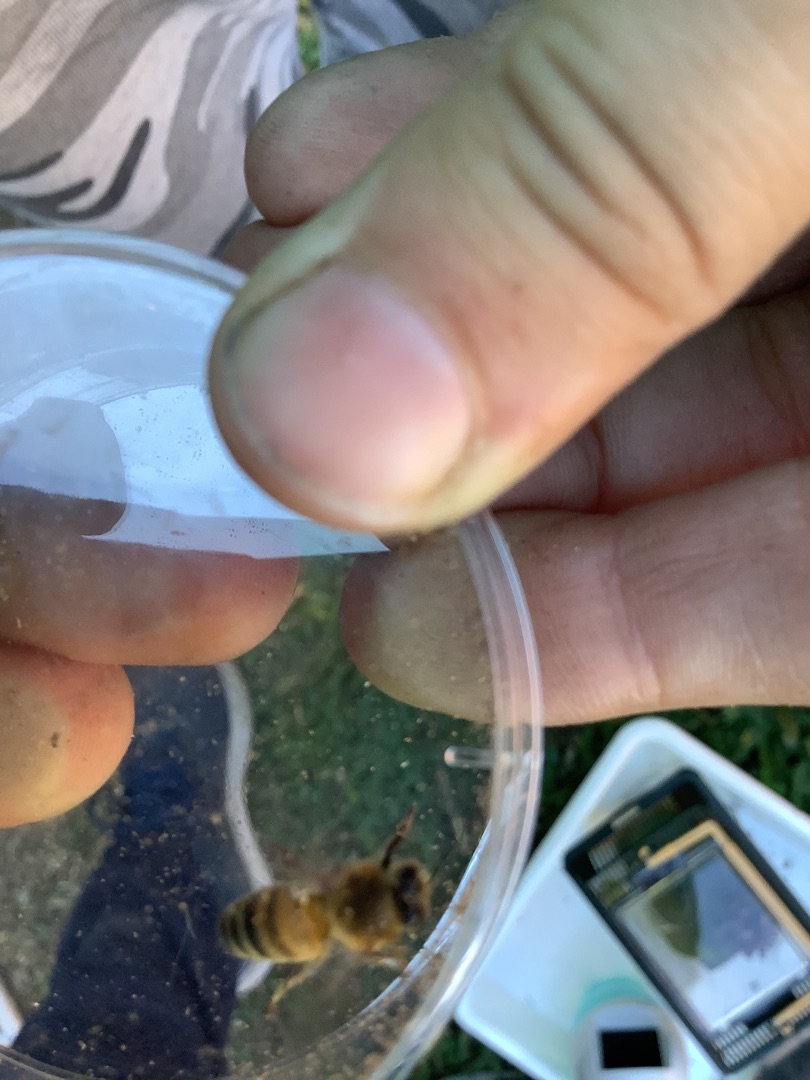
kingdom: Animalia
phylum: Arthropoda
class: Insecta
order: Hymenoptera
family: Apidae
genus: Apis
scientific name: Apis mellifera
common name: Honningbi
